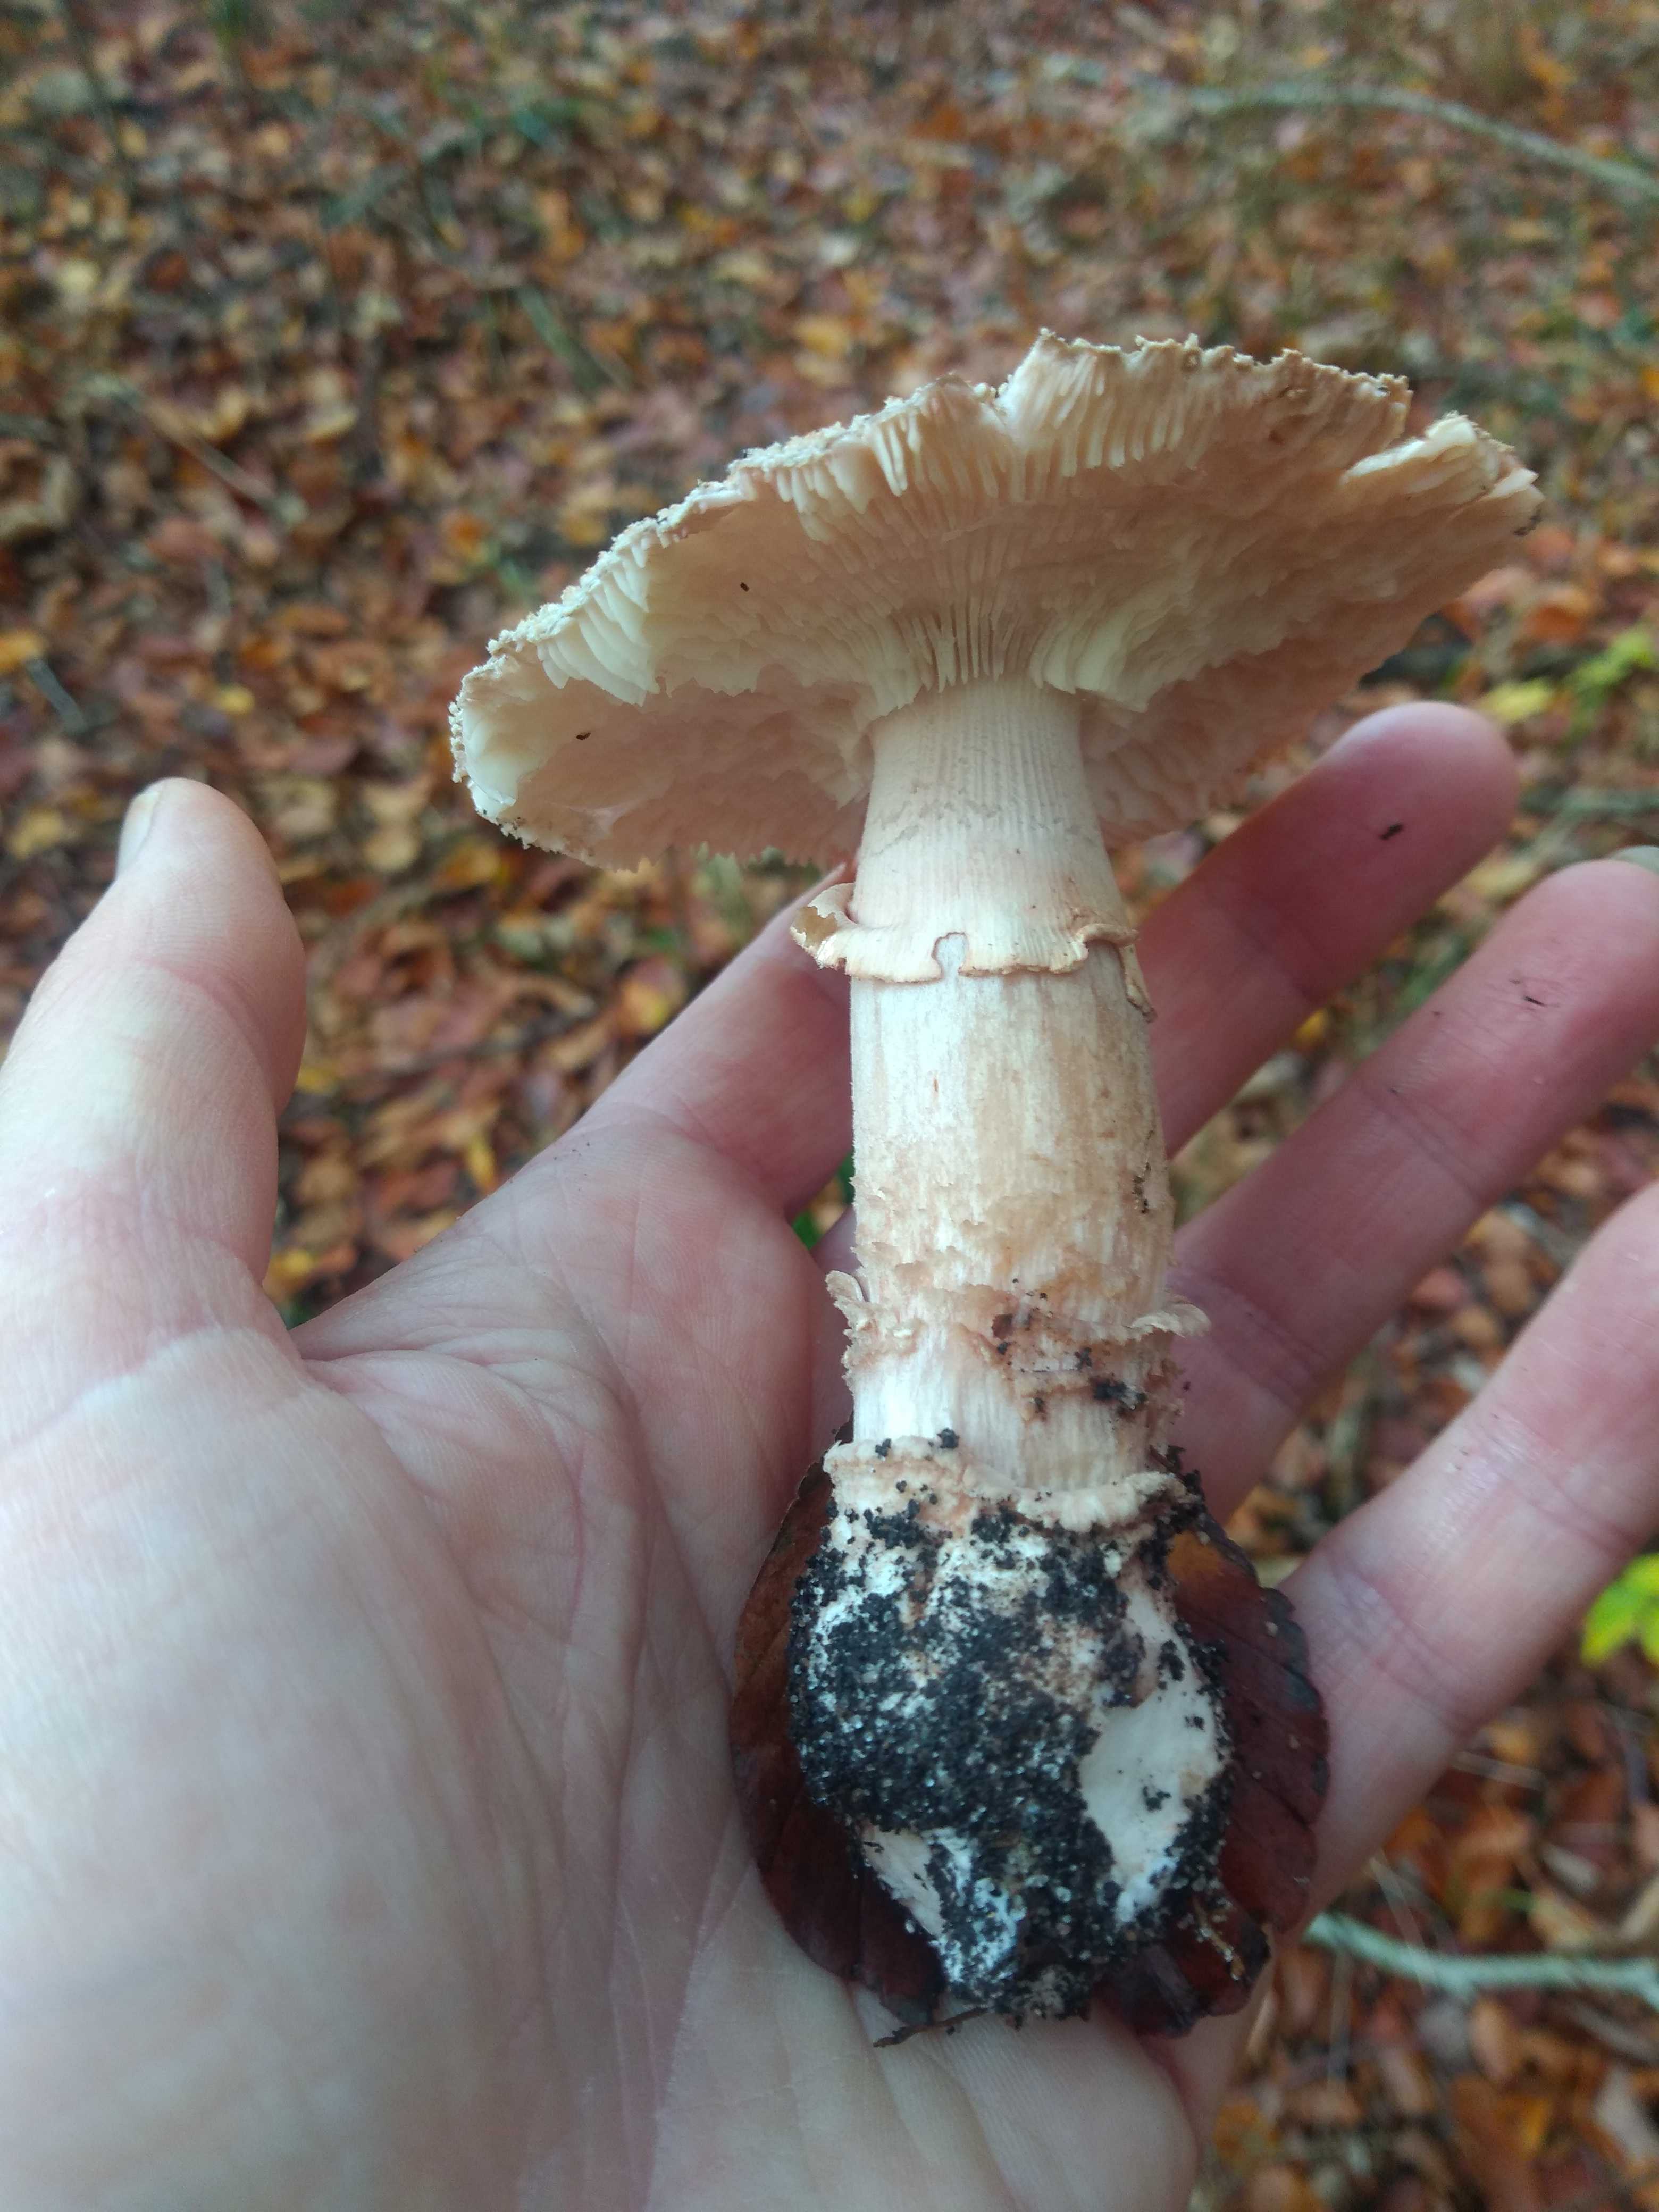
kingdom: Fungi
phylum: Basidiomycota
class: Agaricomycetes
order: Agaricales
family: Amanitaceae
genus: Amanita
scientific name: Amanita rubescens
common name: rødmende fluesvamp
